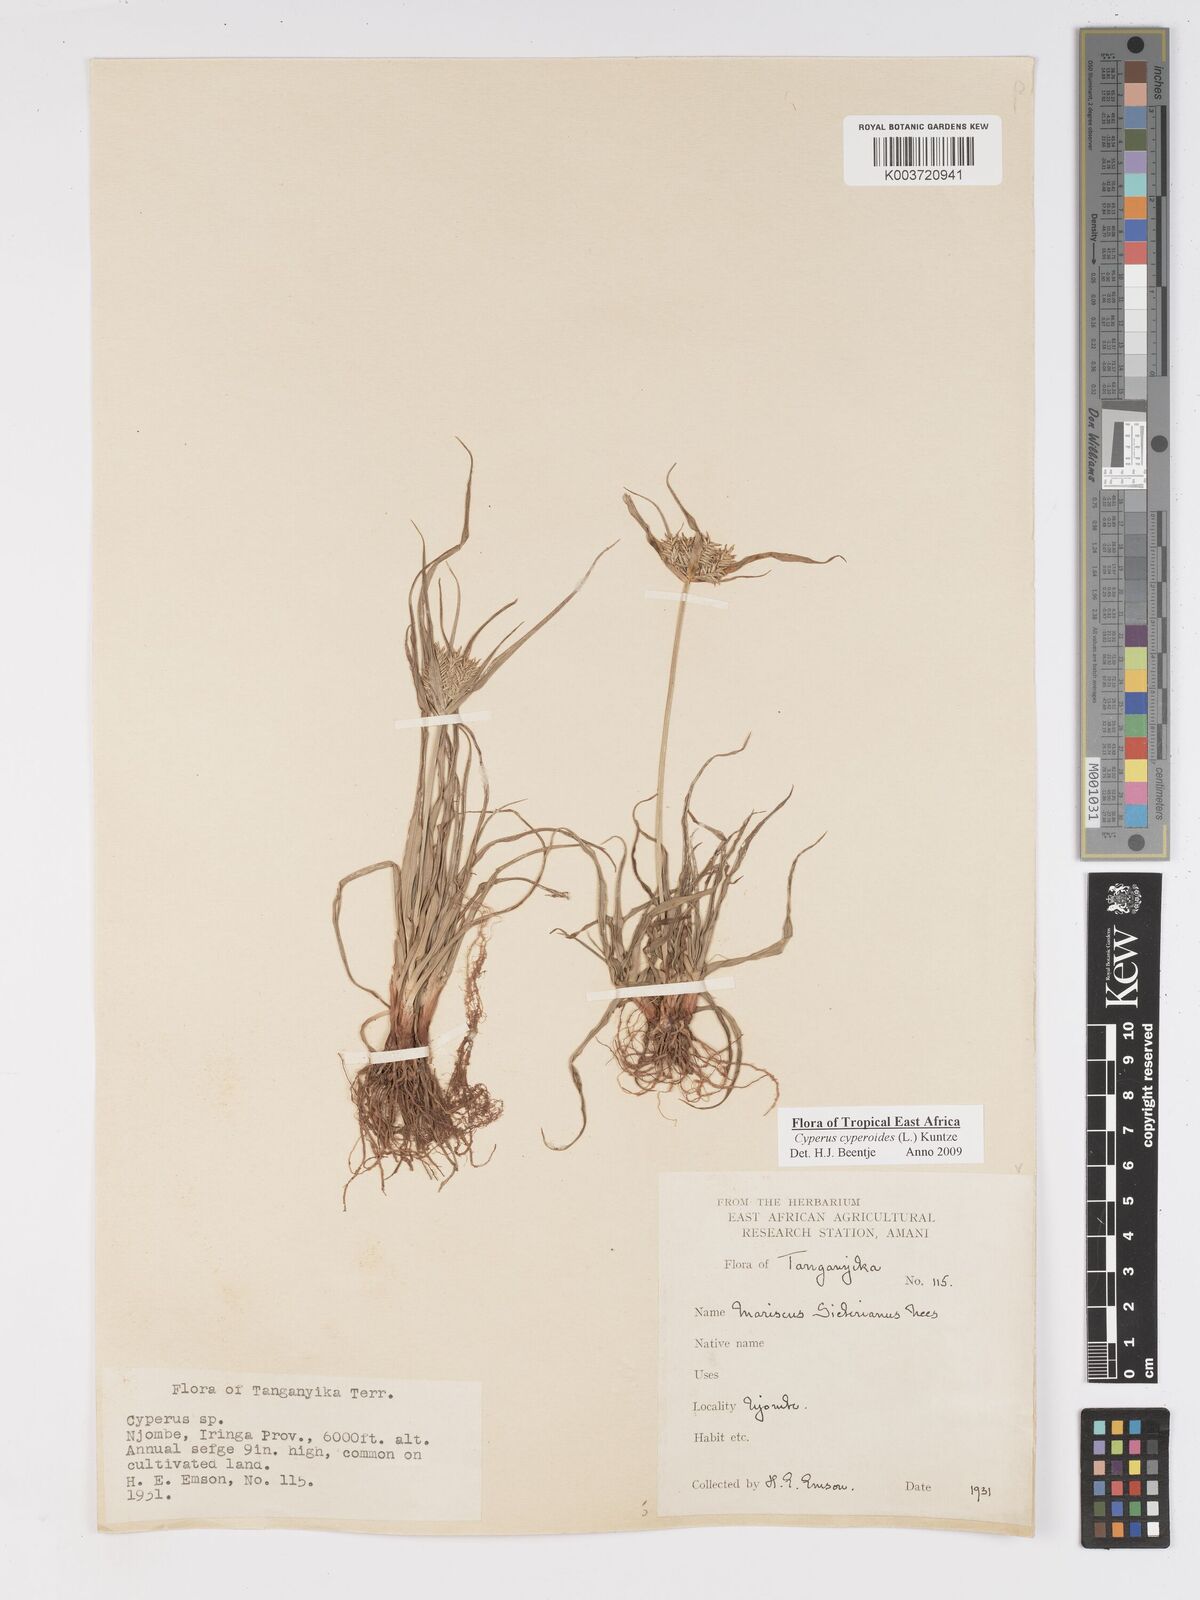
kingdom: Plantae
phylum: Tracheophyta
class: Liliopsida
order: Poales
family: Cyperaceae
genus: Cyperus
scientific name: Cyperus macrocarpus
